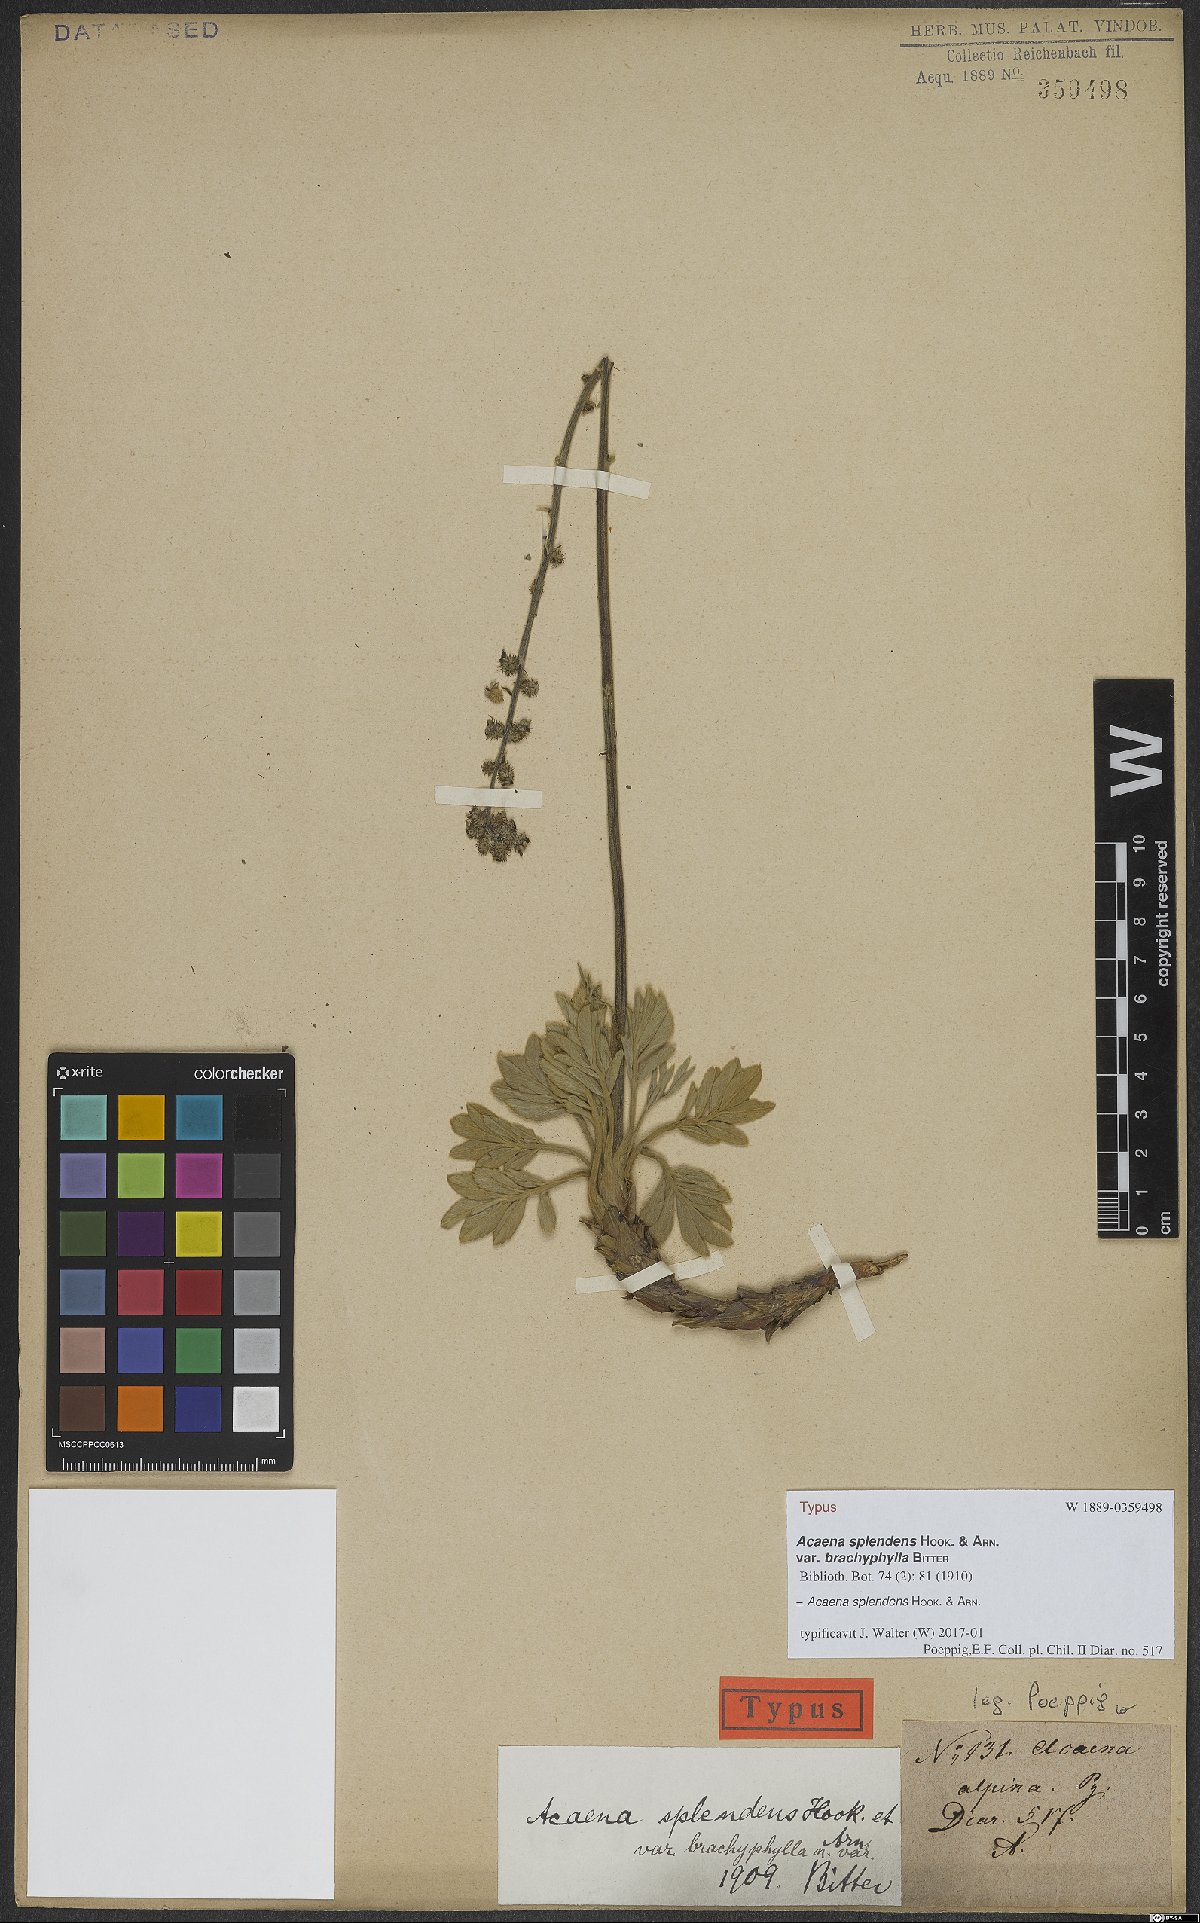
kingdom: Plantae
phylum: Tracheophyta
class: Magnoliopsida
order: Rosales
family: Rosaceae
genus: Acaena
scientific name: Acaena splendens
